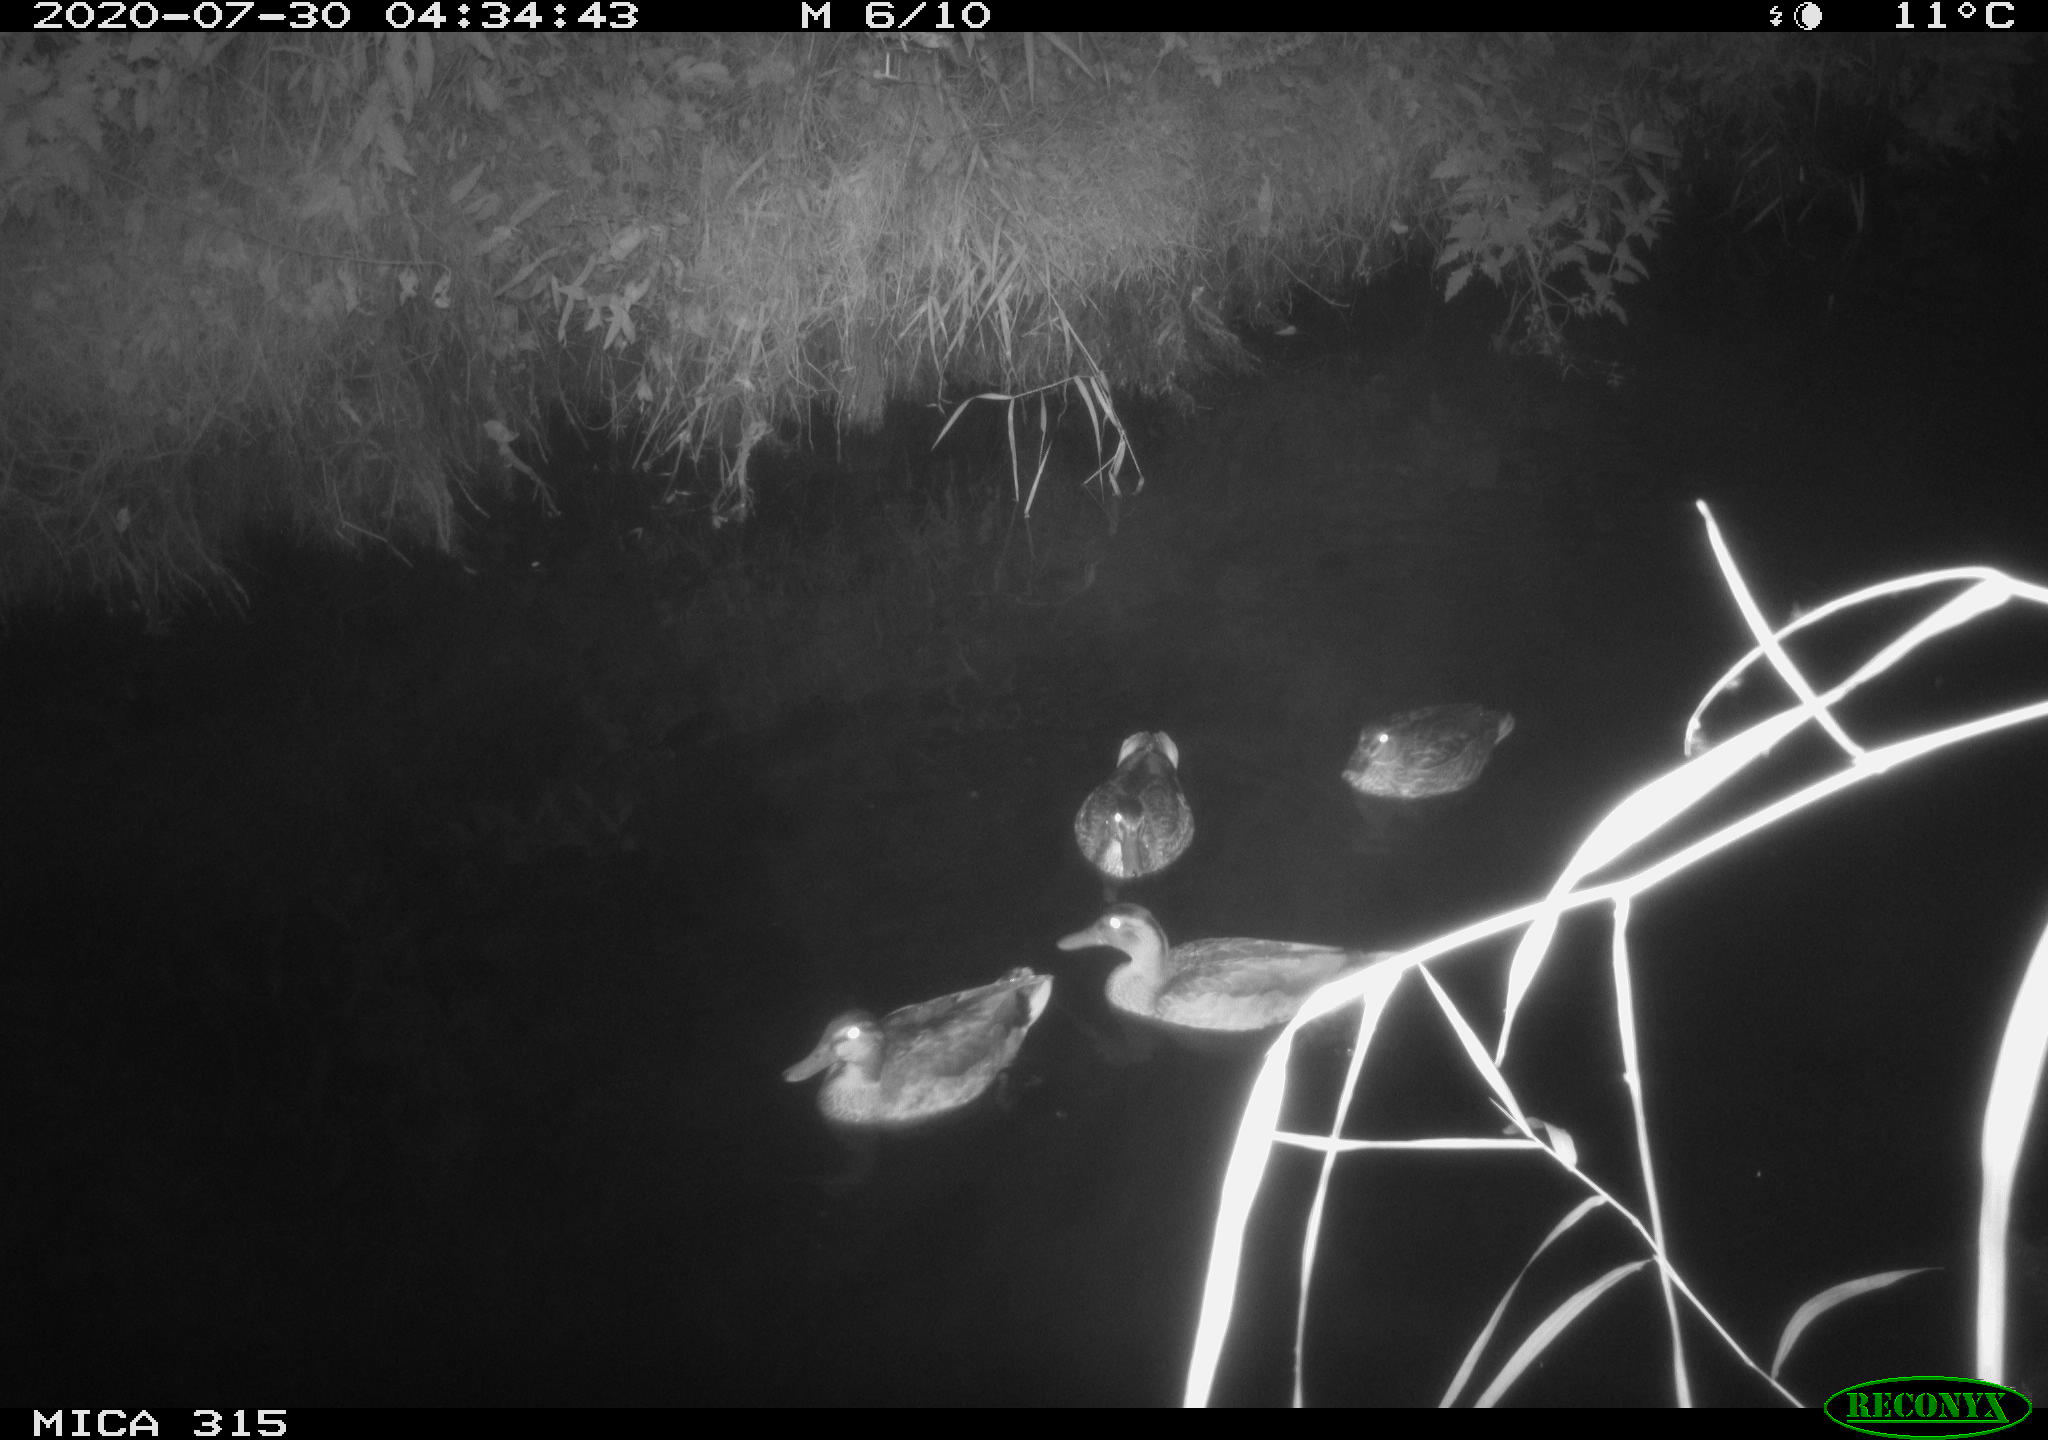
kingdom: Animalia
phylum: Chordata
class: Aves
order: Anseriformes
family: Anatidae
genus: Anas
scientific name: Anas platyrhynchos
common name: Mallard
